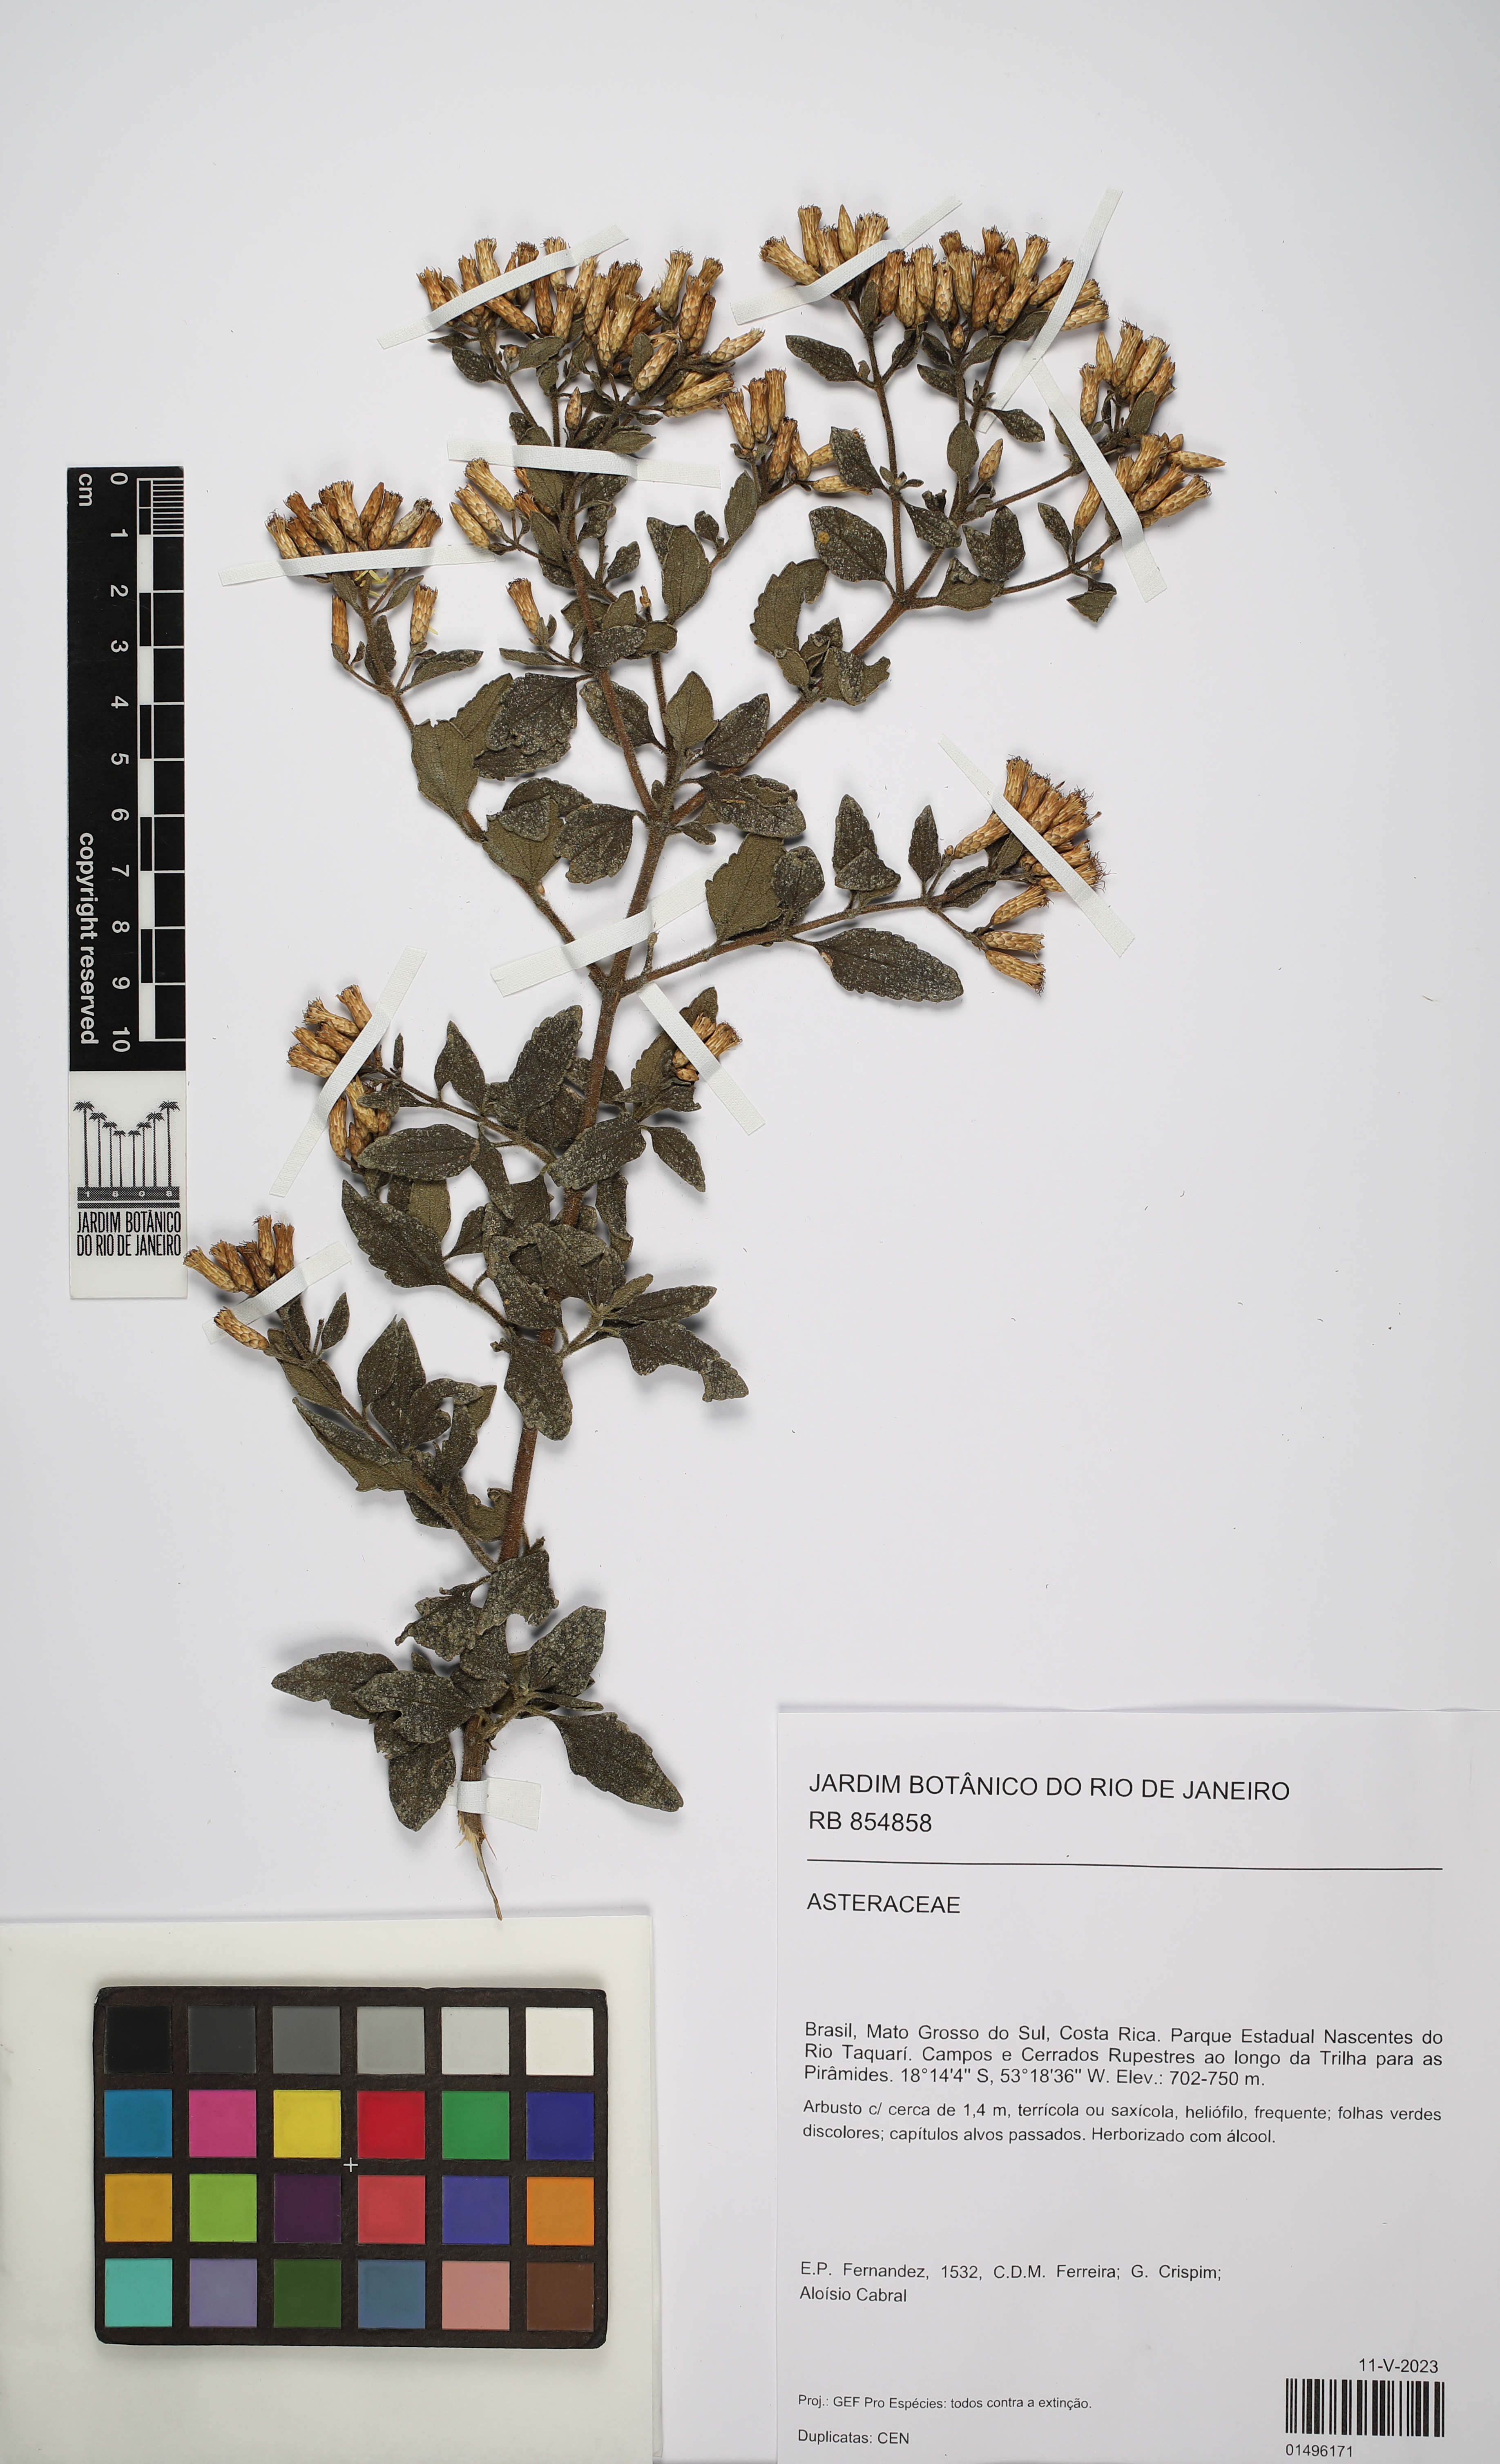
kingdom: Plantae
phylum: Tracheophyta
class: Magnoliopsida
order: Asterales
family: Asteraceae
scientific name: Asteraceae
